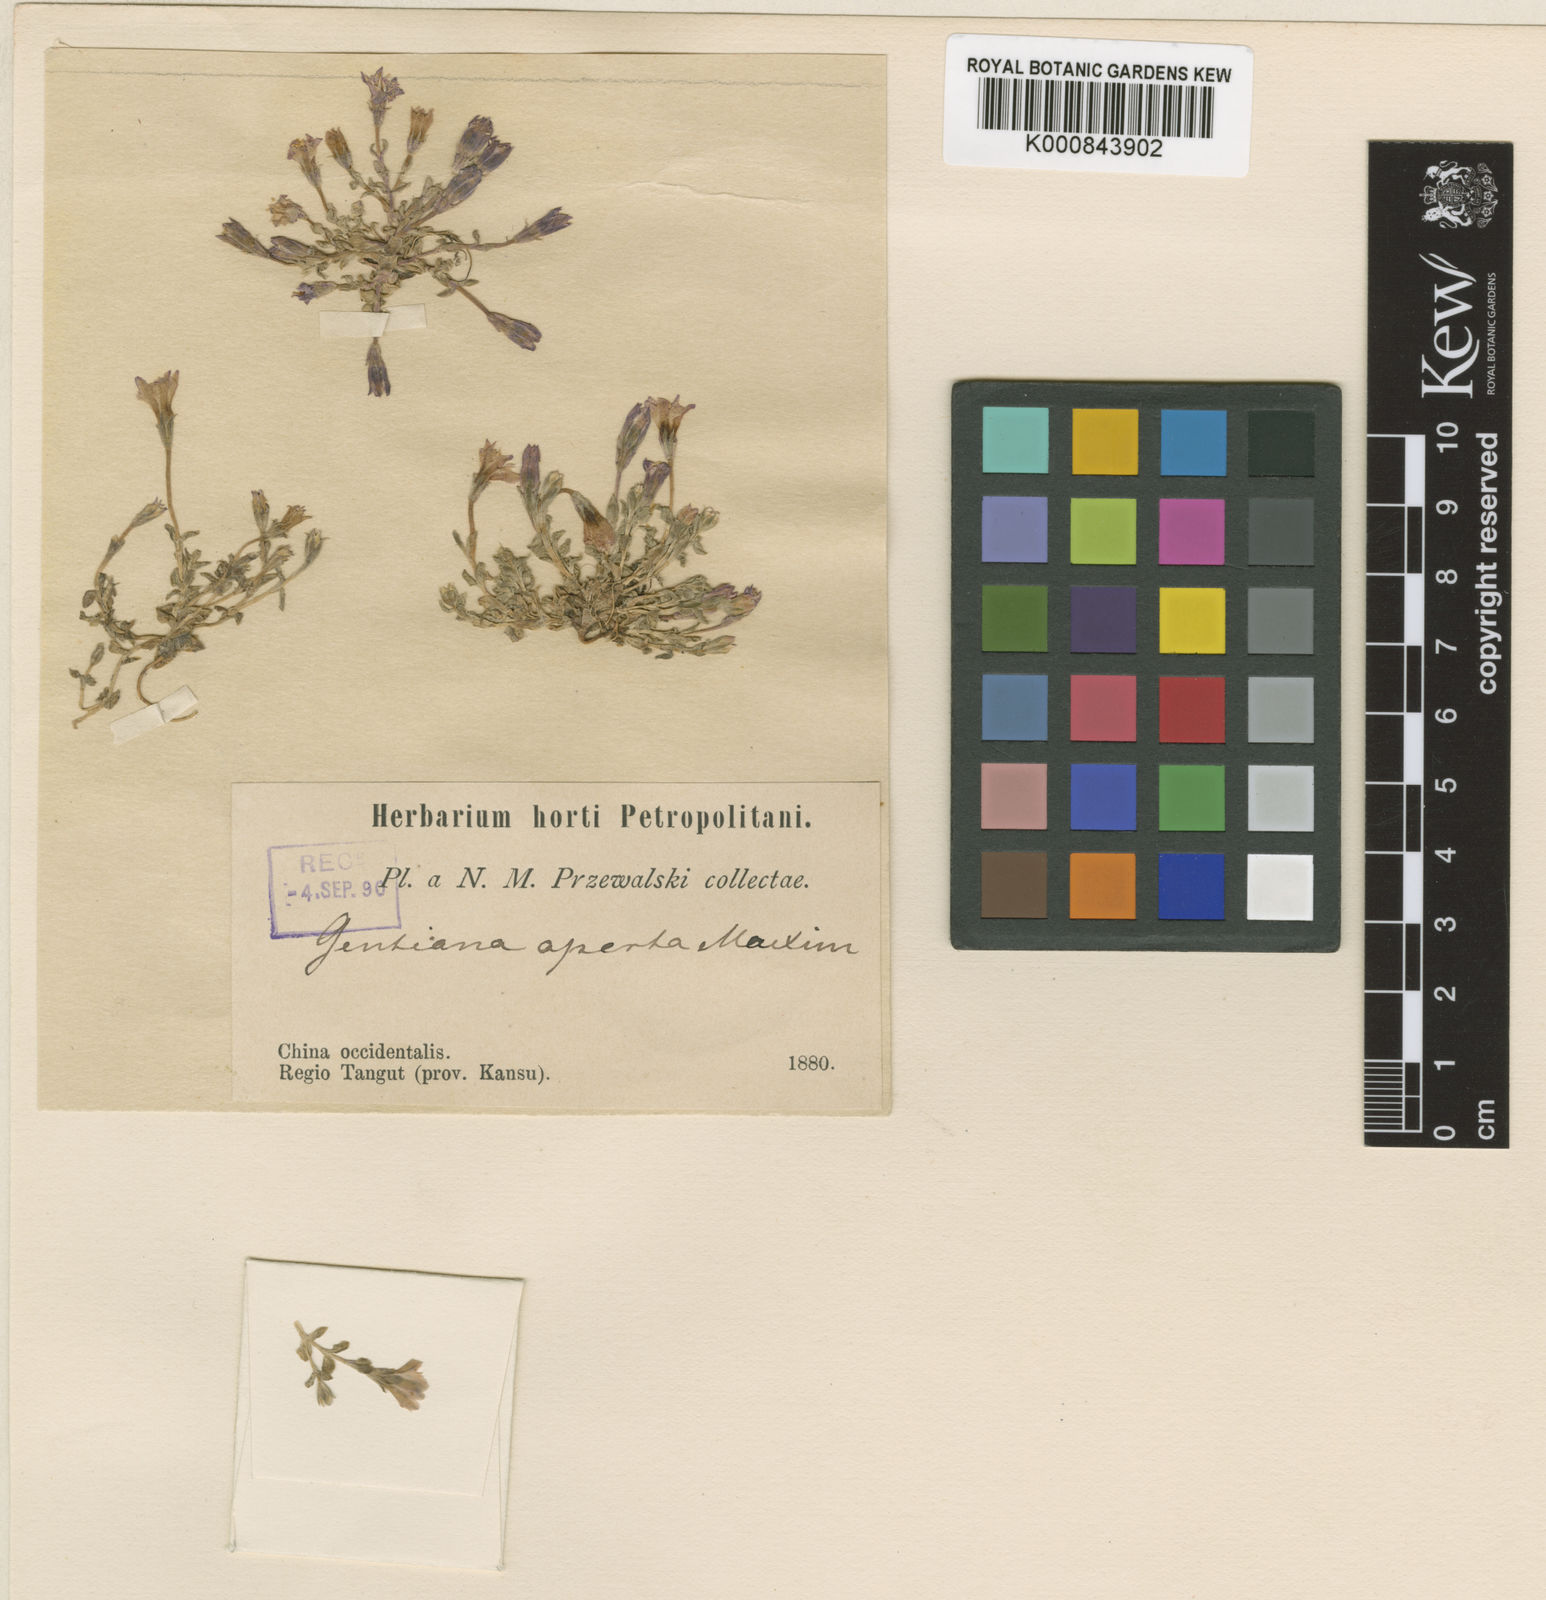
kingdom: Plantae
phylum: Tracheophyta
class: Magnoliopsida
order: Gentianales
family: Gentianaceae
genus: Gentiana
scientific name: Gentiana aperta
